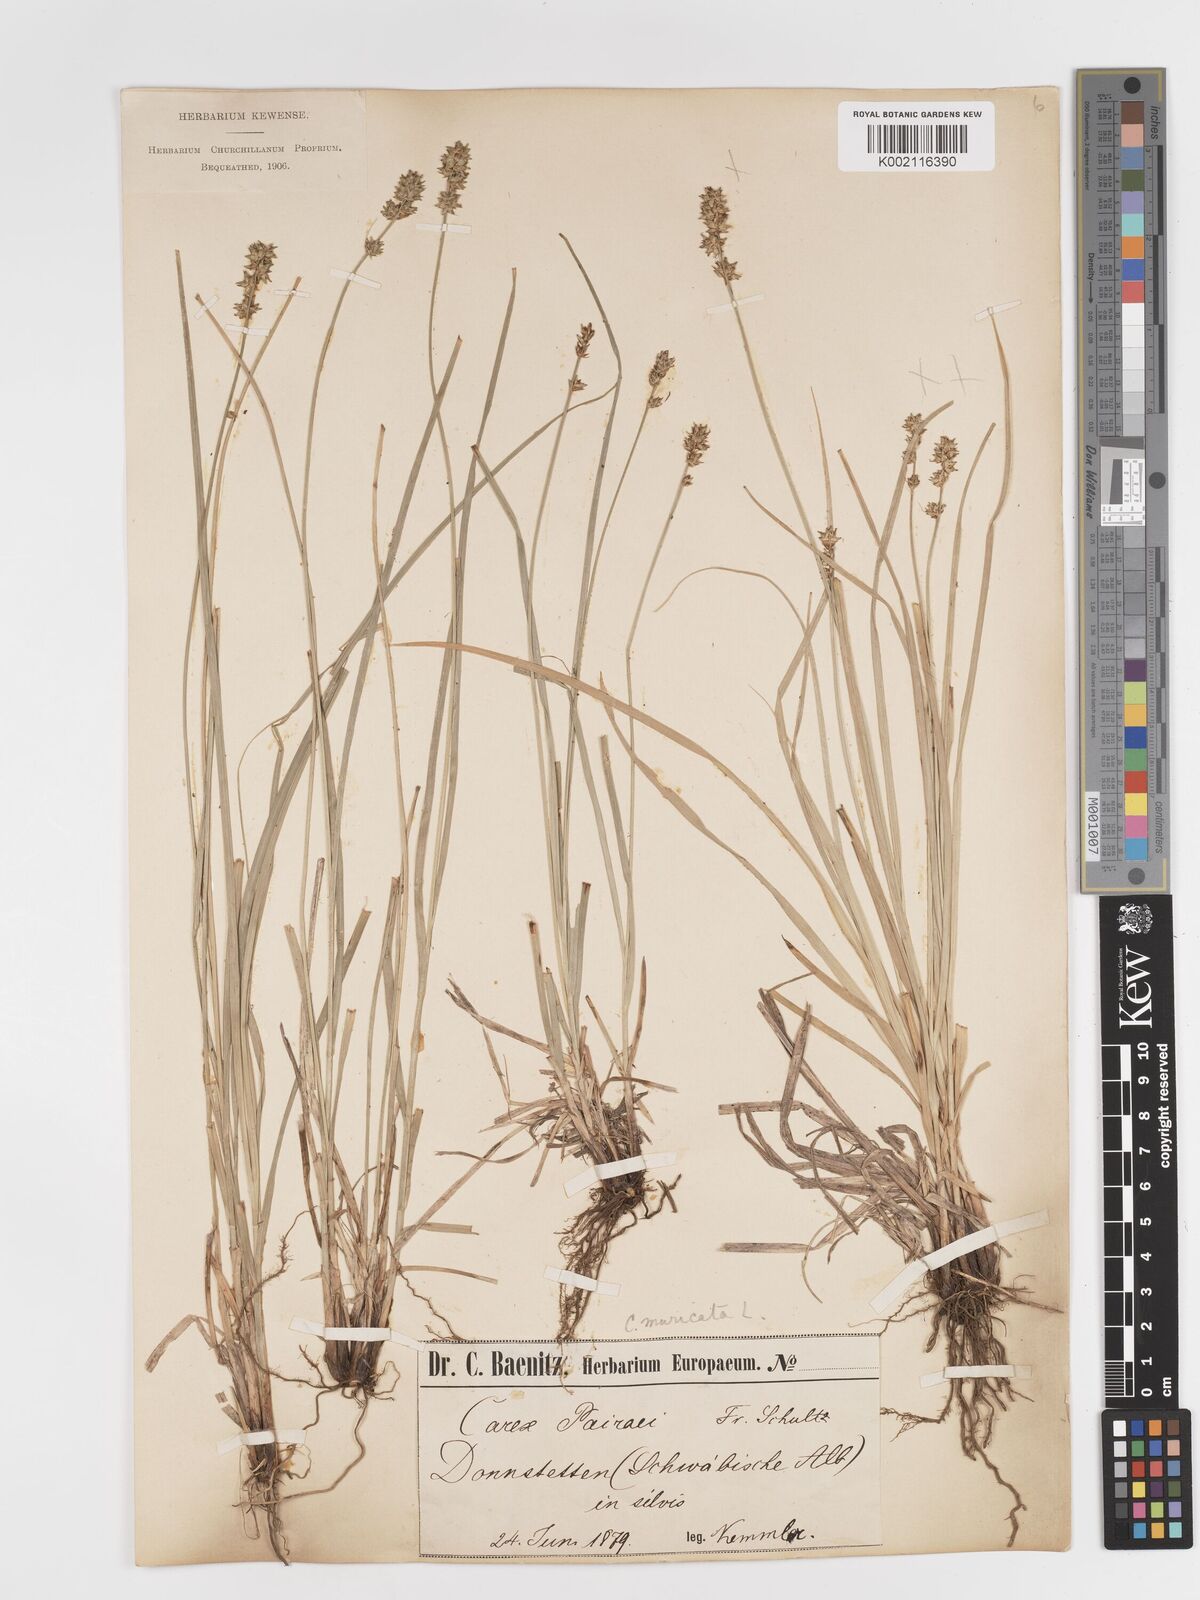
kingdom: Plantae
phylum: Tracheophyta
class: Liliopsida
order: Poales
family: Cyperaceae
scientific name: Cyperaceae
